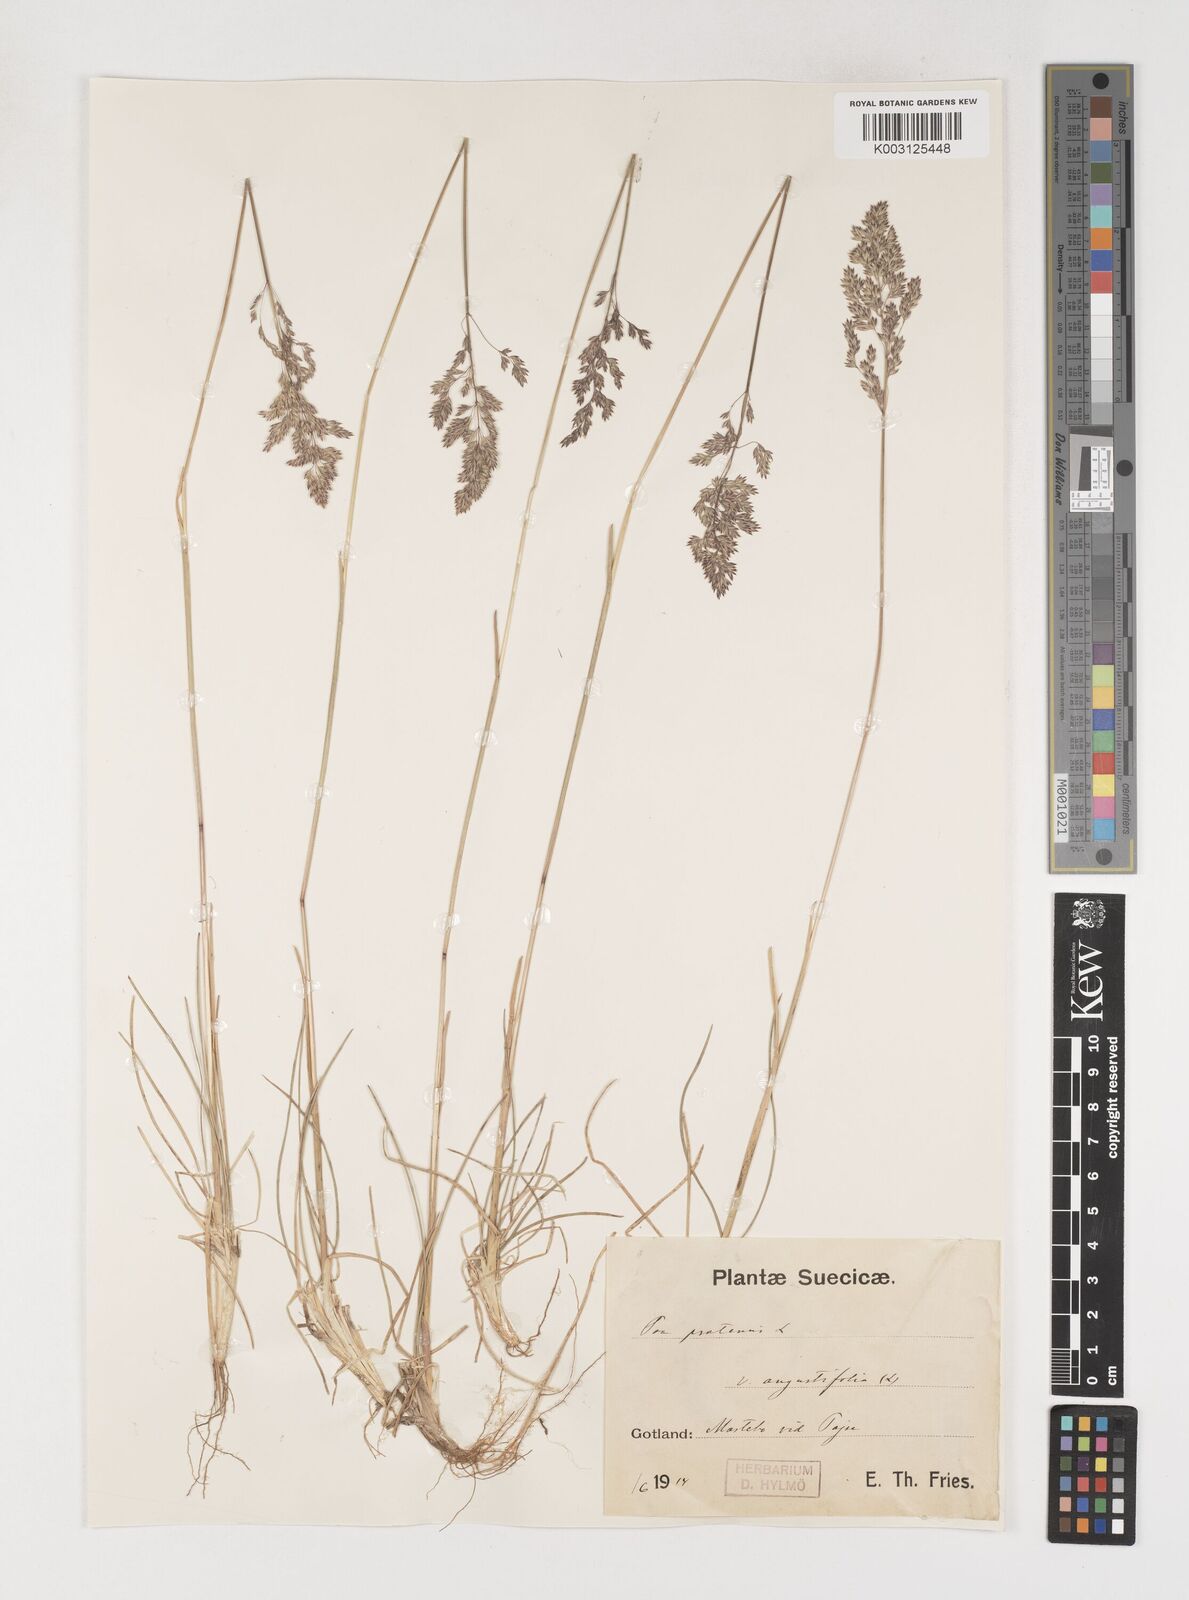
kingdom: Plantae
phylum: Tracheophyta
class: Liliopsida
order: Poales
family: Poaceae
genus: Poa
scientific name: Poa pratensis
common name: Kentucky bluegrass
